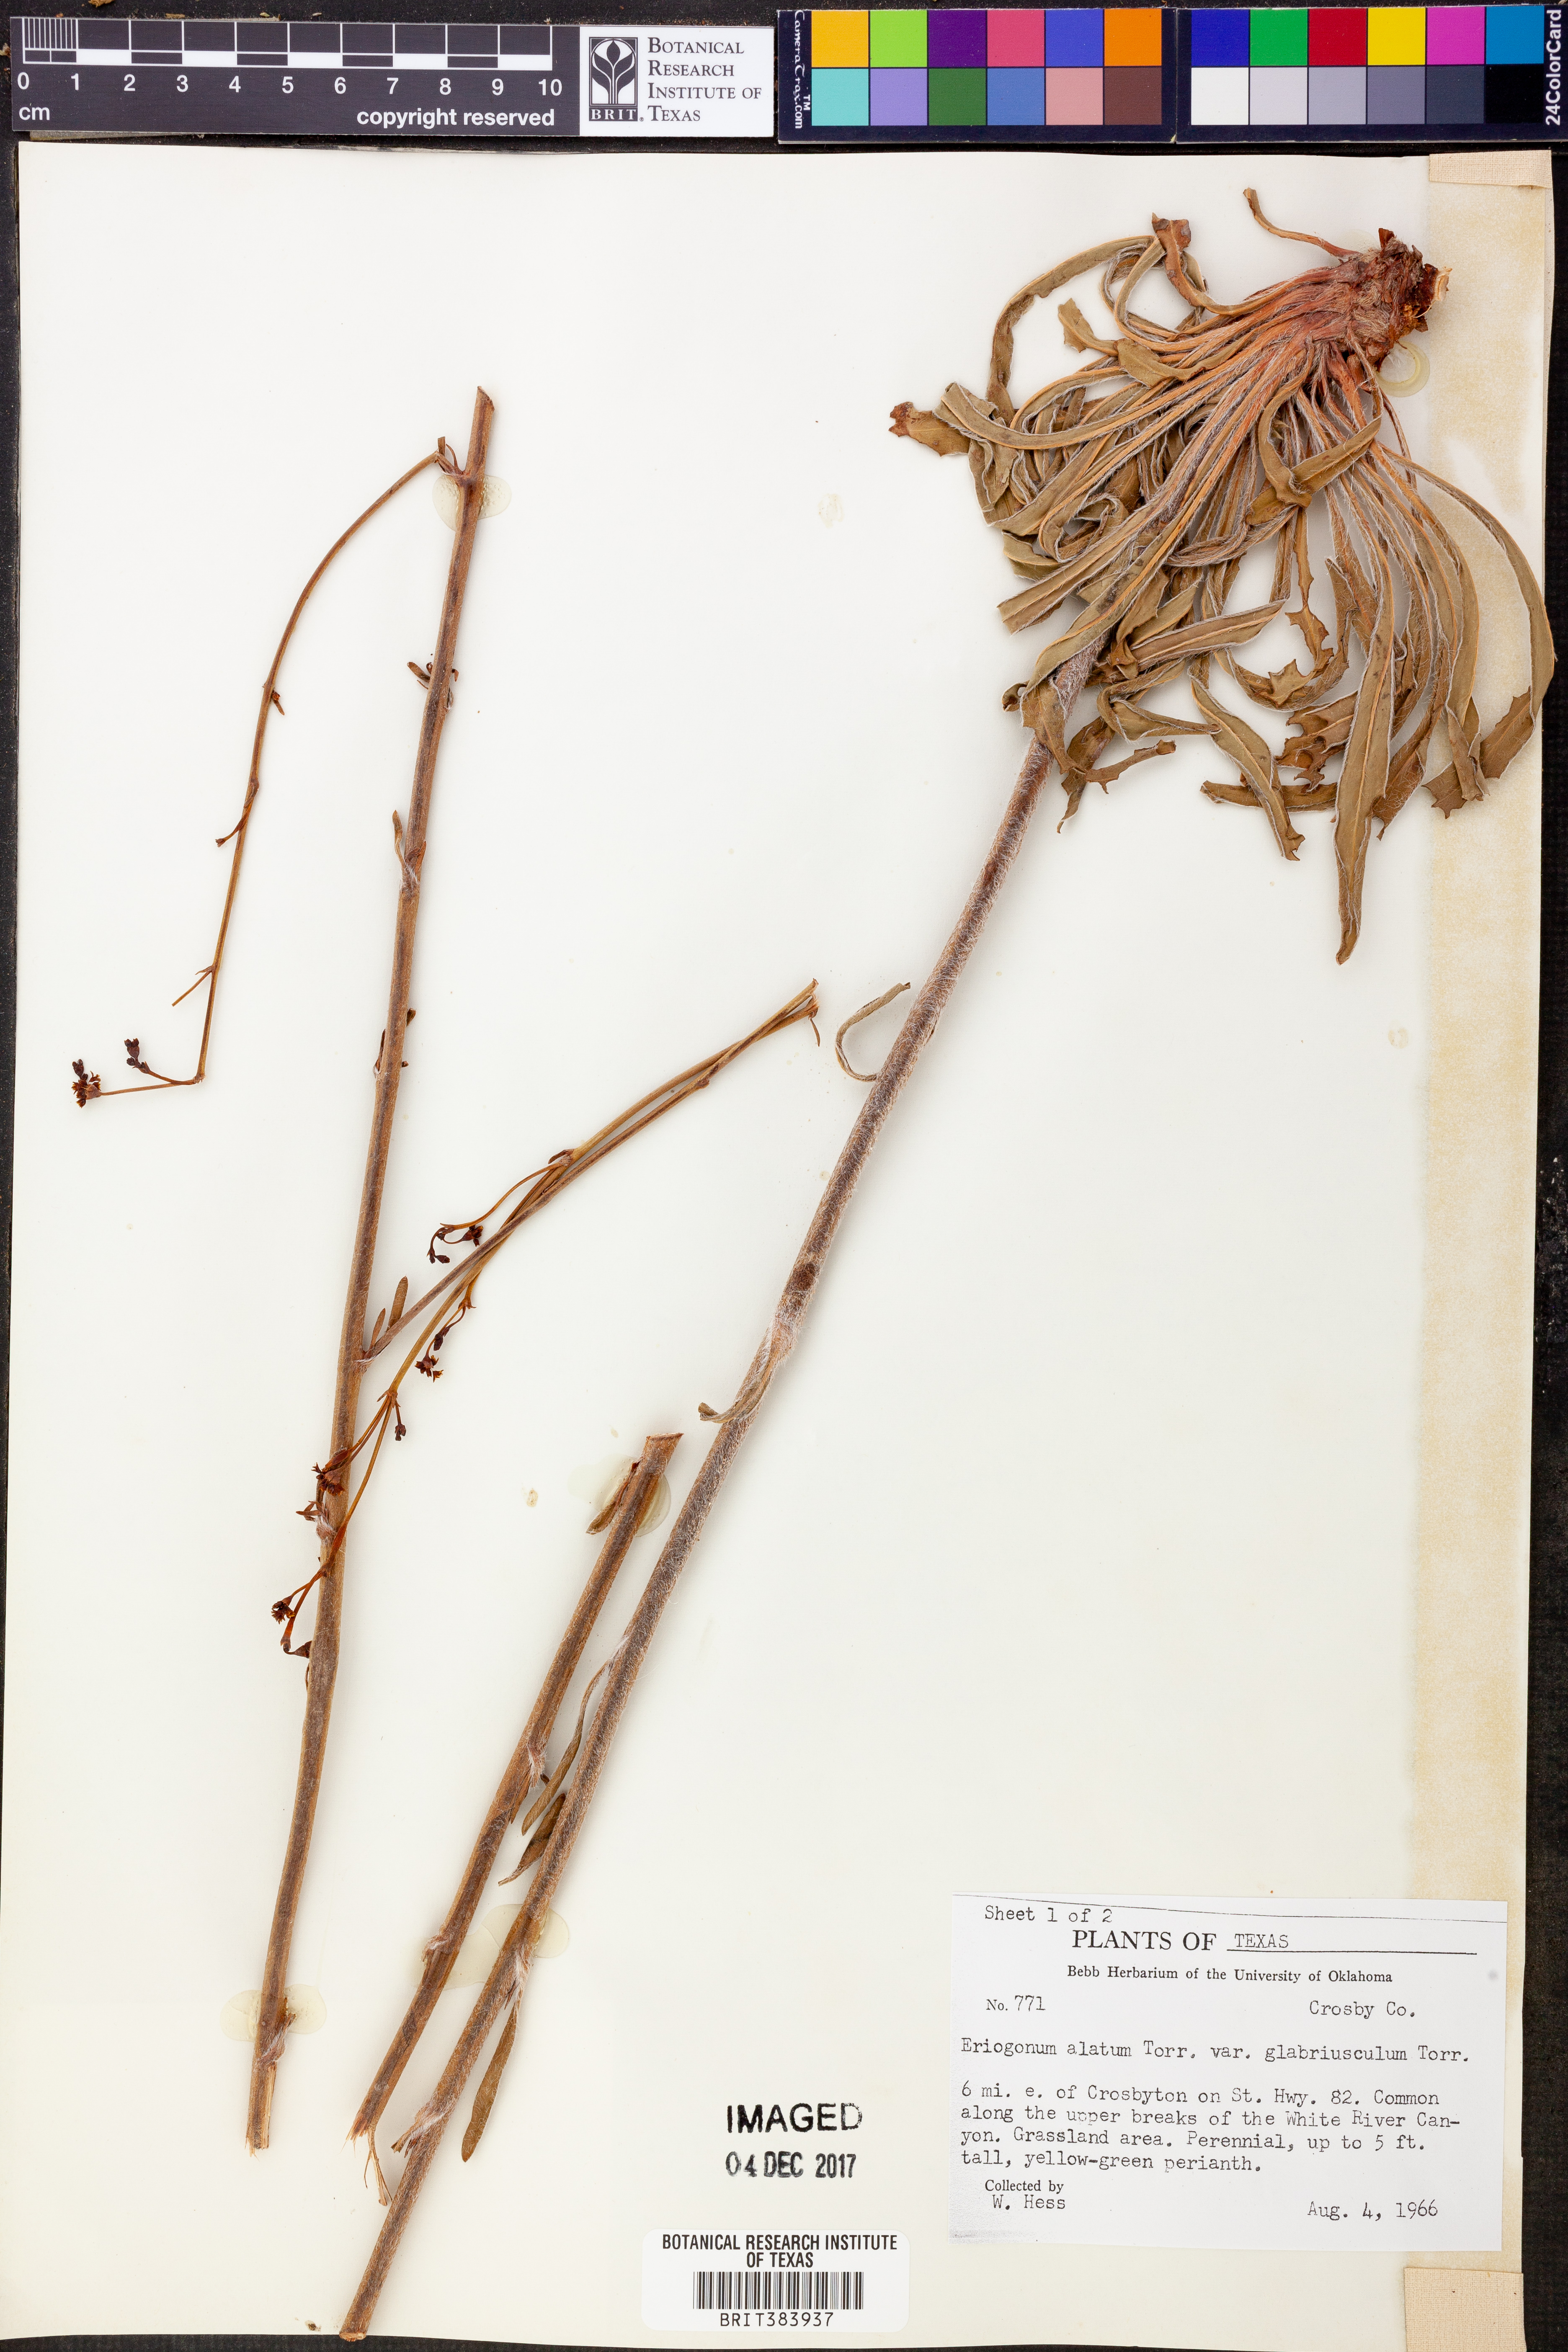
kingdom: Plantae
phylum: Tracheophyta
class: Magnoliopsida
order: Caryophyllales
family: Polygonaceae
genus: Eriogonum
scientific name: Eriogonum alatum
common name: Winged eriogonum
